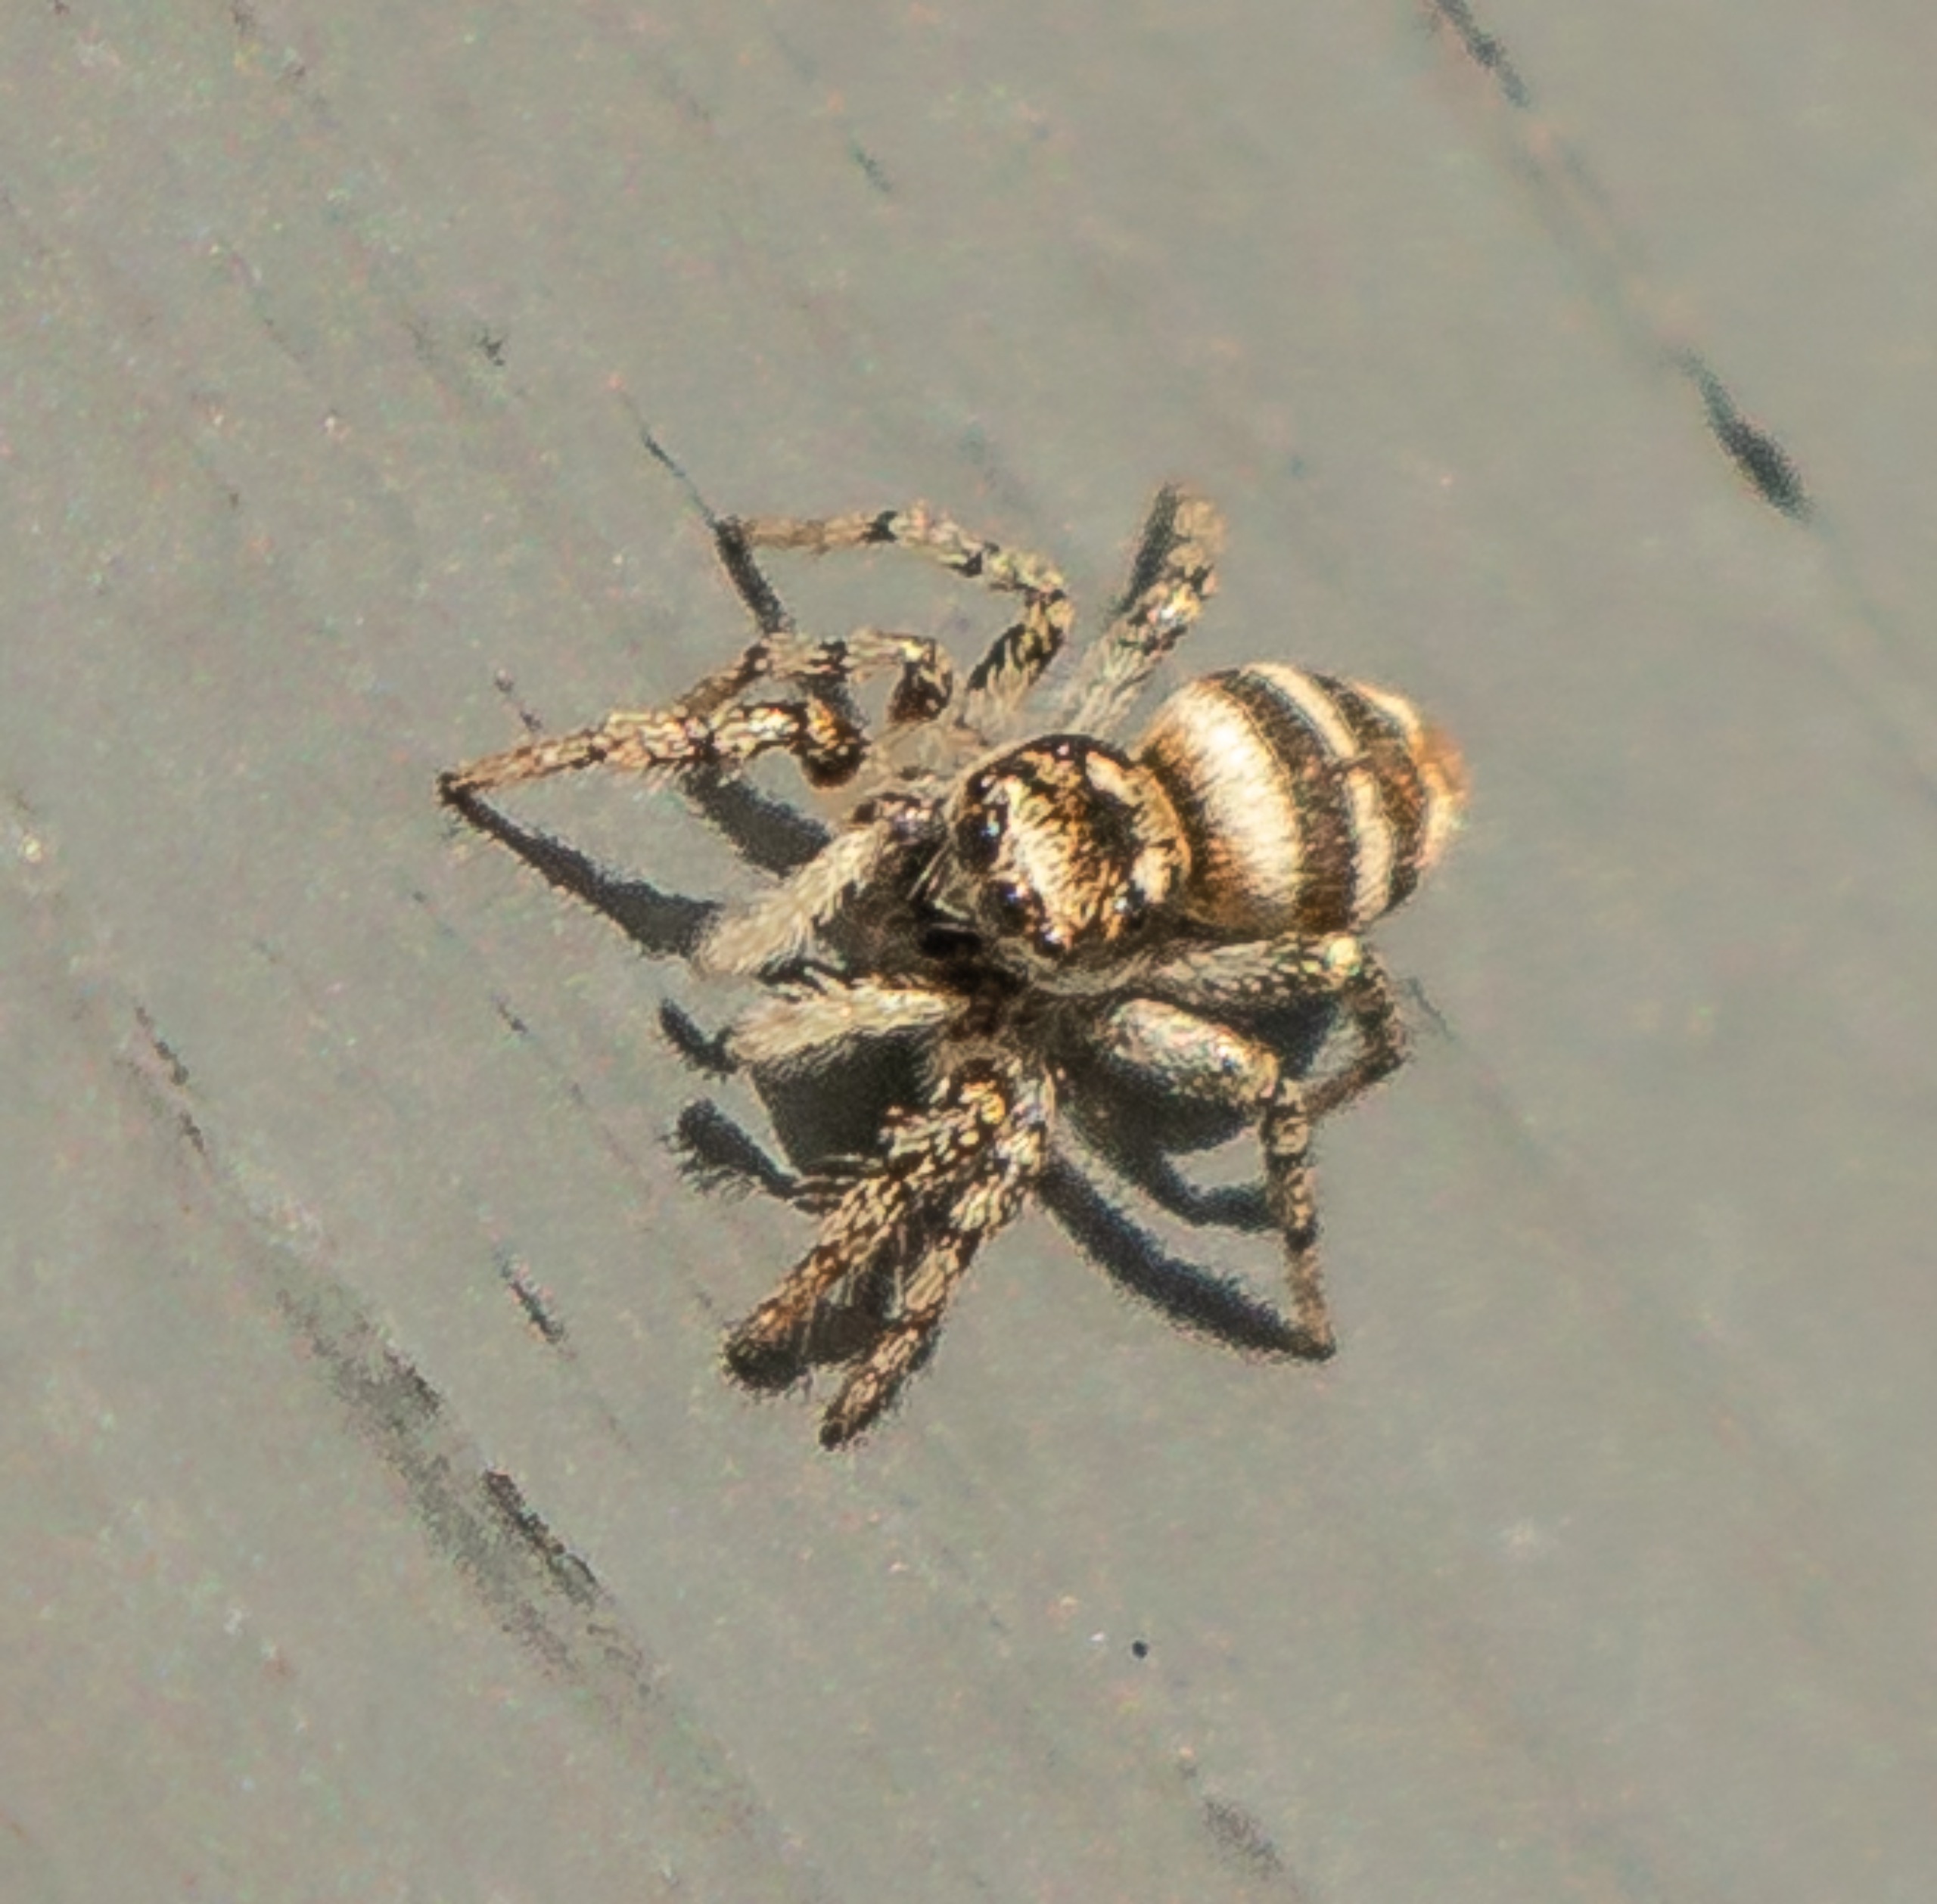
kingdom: Animalia
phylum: Arthropoda
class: Arachnida
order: Araneae
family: Salticidae
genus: Salticus
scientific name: Salticus scenicus
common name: Almindelig zebraedderkop
